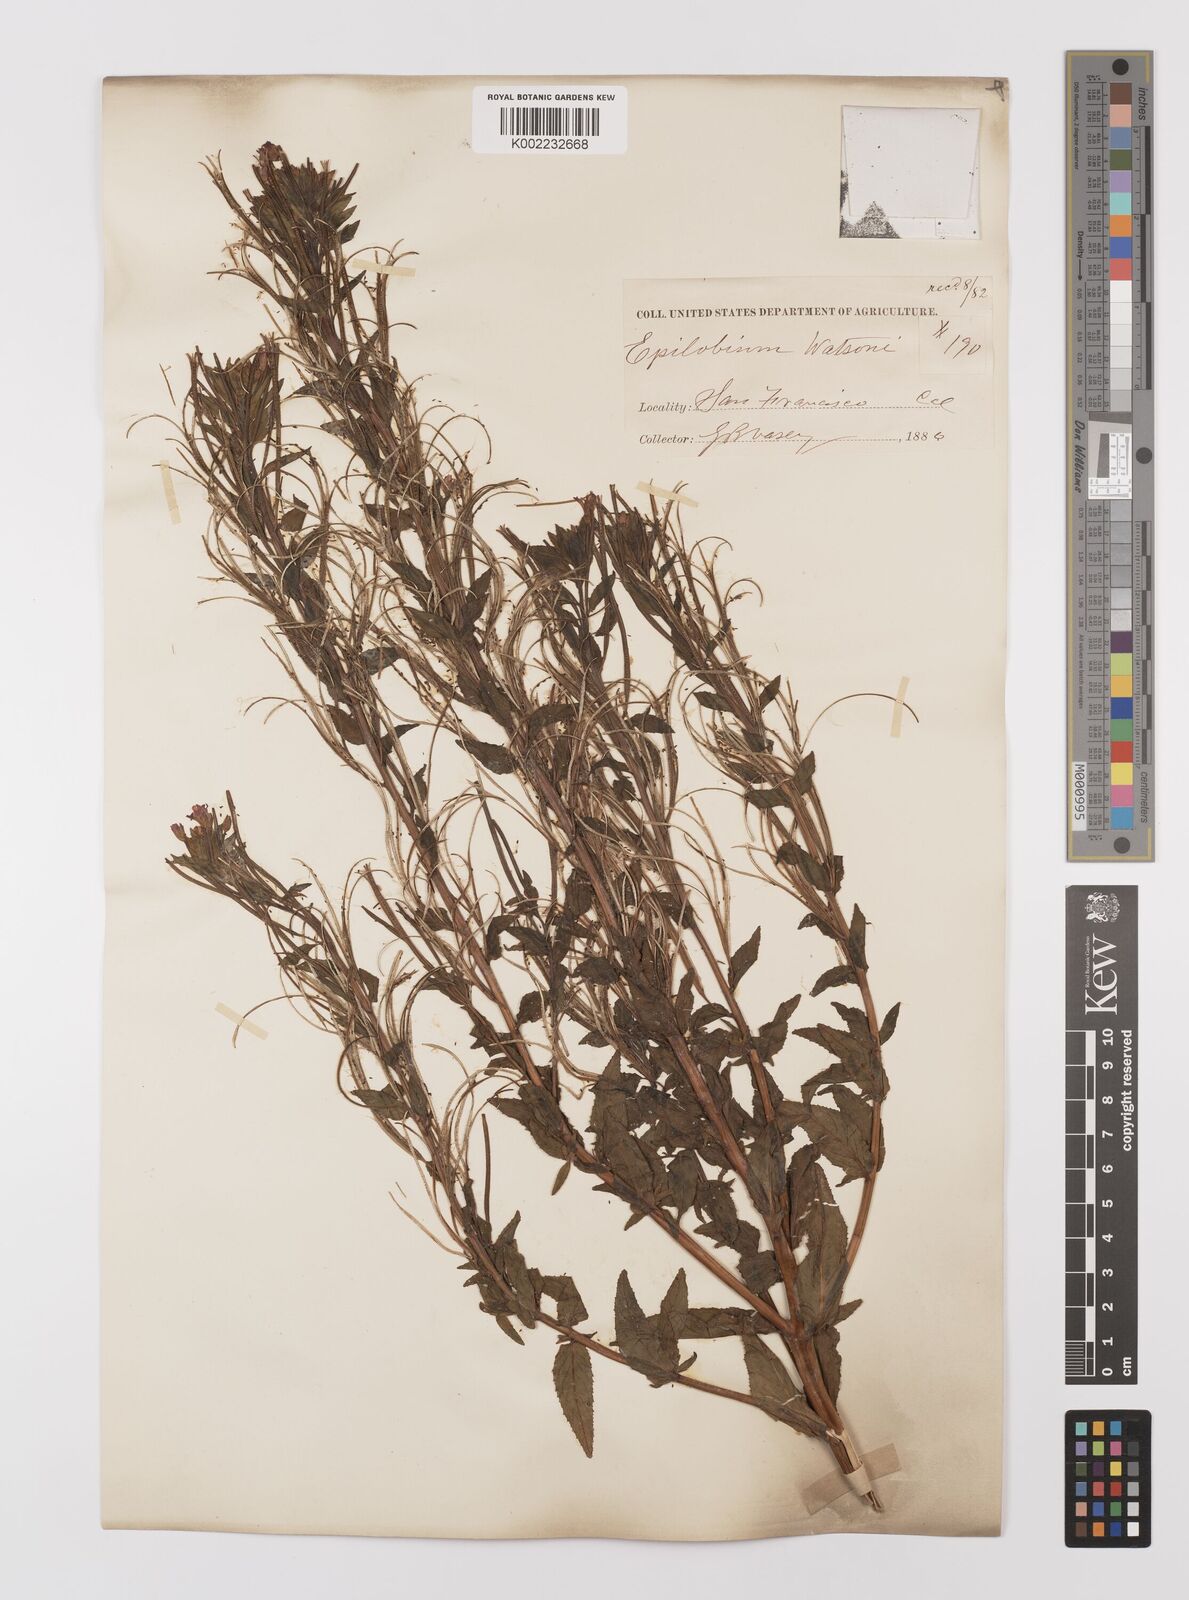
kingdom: Plantae
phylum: Tracheophyta
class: Magnoliopsida
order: Myrtales
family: Onagraceae
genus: Epilobium
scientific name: Epilobium ciliatum
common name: American willowherb
